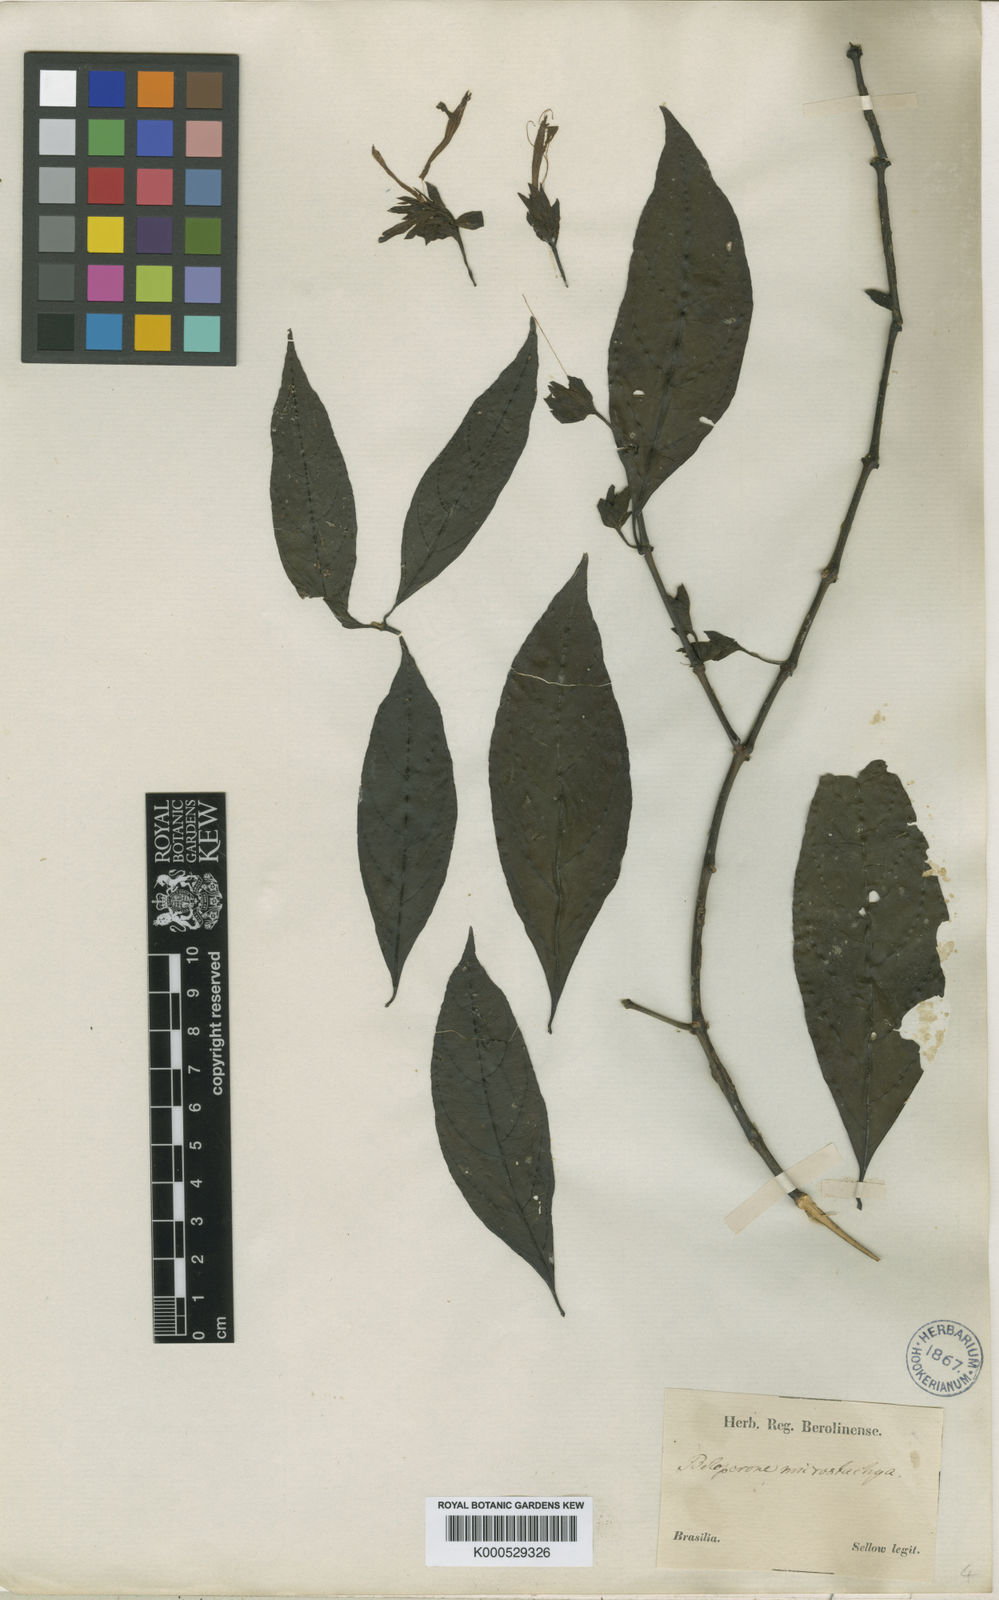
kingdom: Plantae
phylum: Tracheophyta
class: Magnoliopsida
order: Lamiales
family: Acanthaceae
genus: Justicia
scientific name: Justicia
